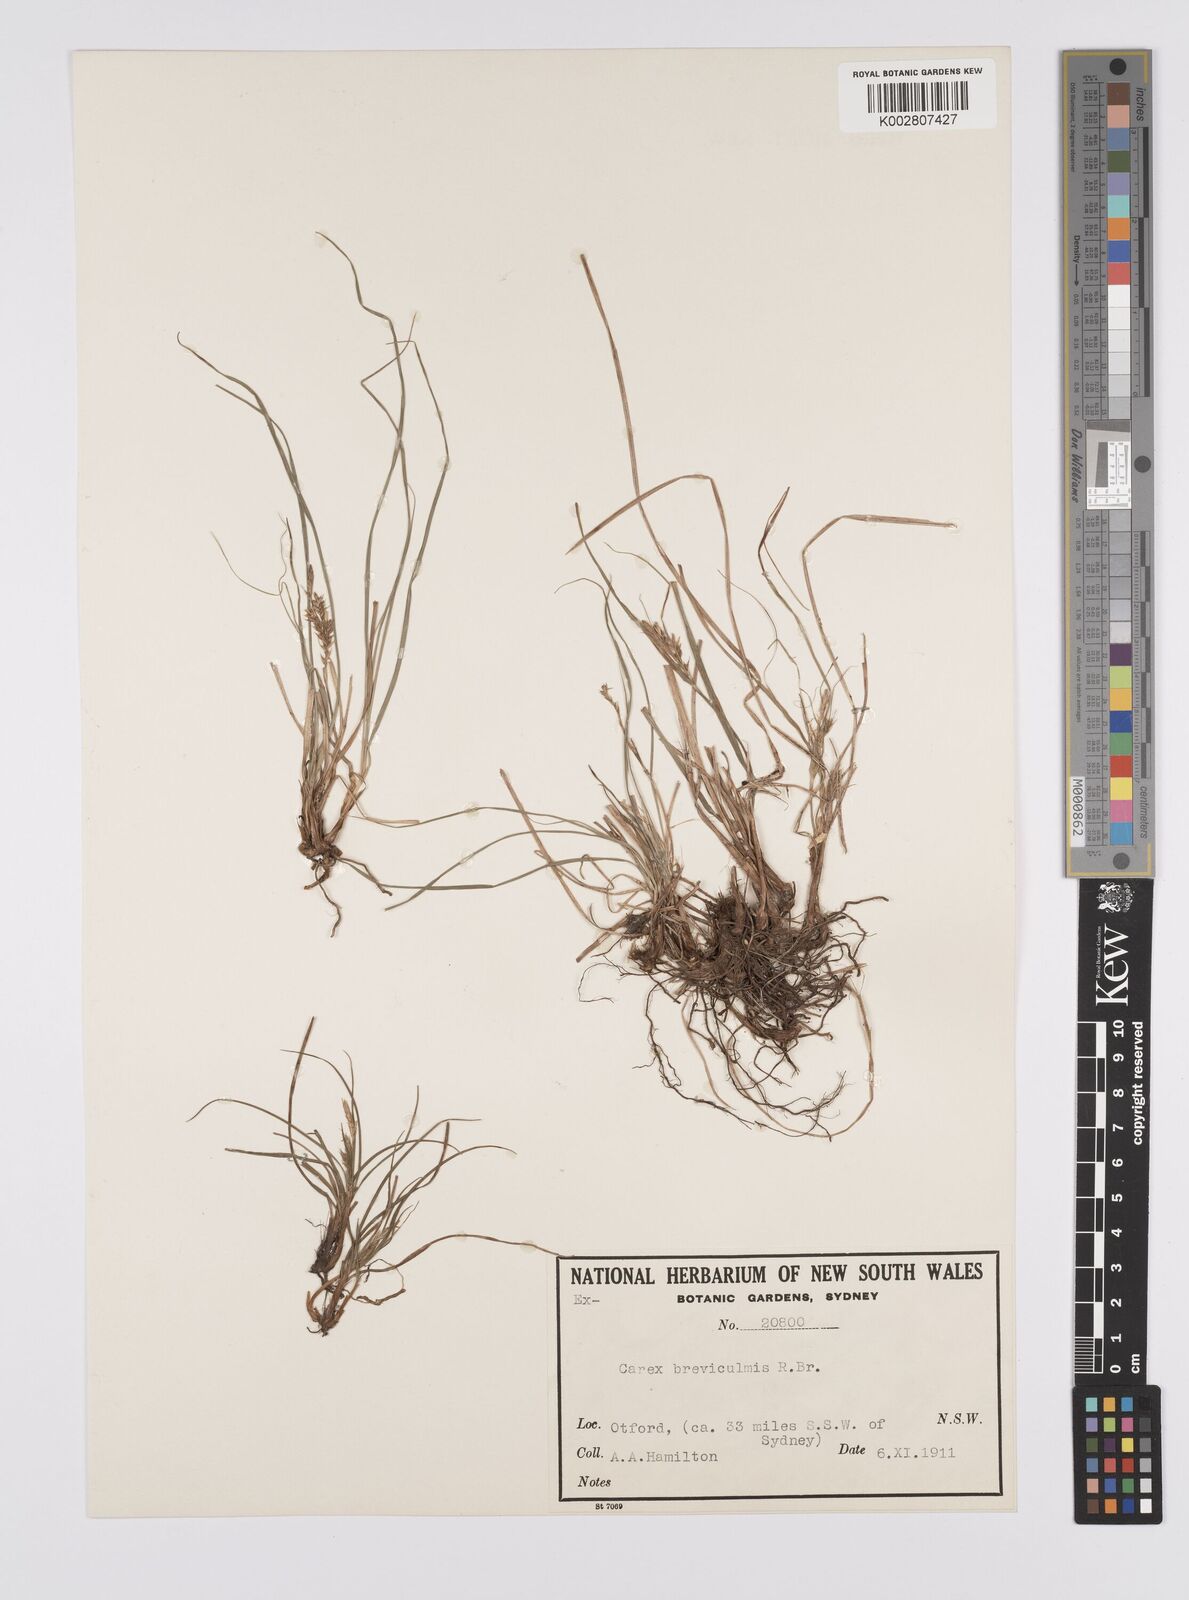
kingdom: Plantae
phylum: Tracheophyta
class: Liliopsida
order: Poales
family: Cyperaceae
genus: Carex
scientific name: Carex breviculmis
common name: Asian shortstem sedge
